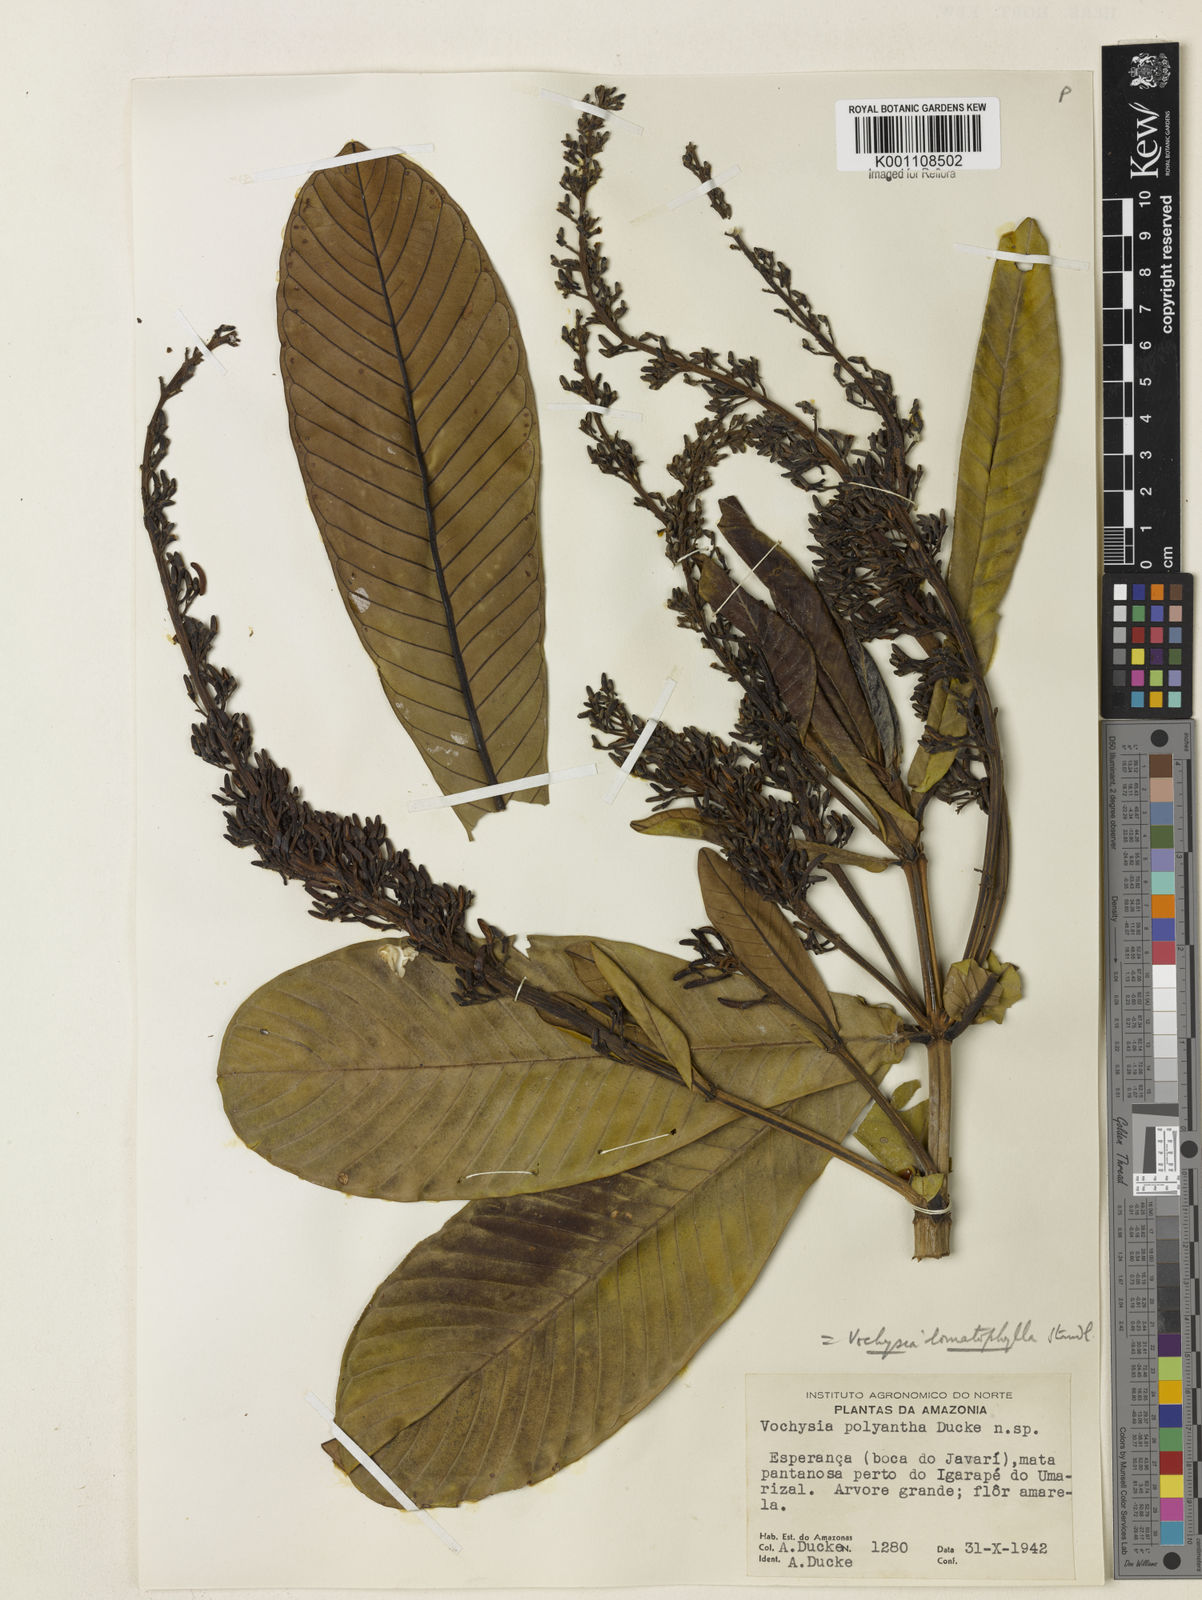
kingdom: Plantae
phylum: Tracheophyta
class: Magnoliopsida
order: Myrtales
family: Vochysiaceae
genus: Vochysia
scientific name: Vochysia lomatophylla
